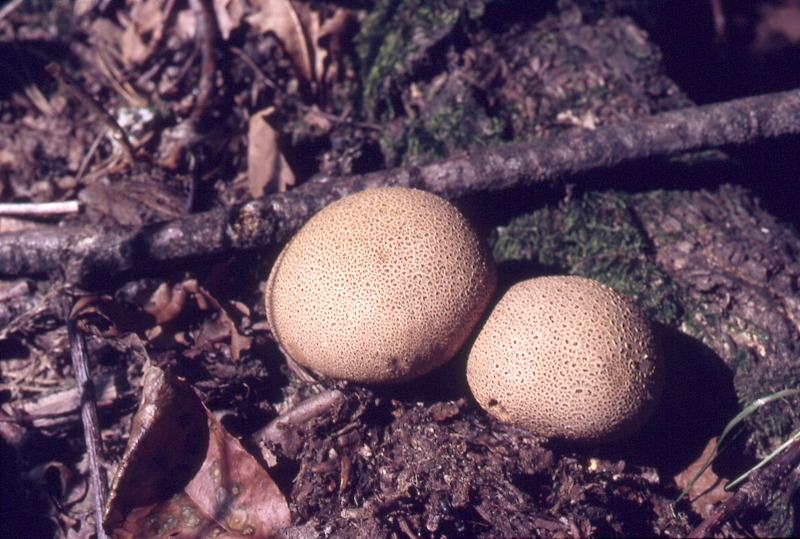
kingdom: Fungi
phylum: Basidiomycota
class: Agaricomycetes
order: Boletales
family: Sclerodermataceae
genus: Scleroderma
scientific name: Scleroderma citrinum
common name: Common earthball
